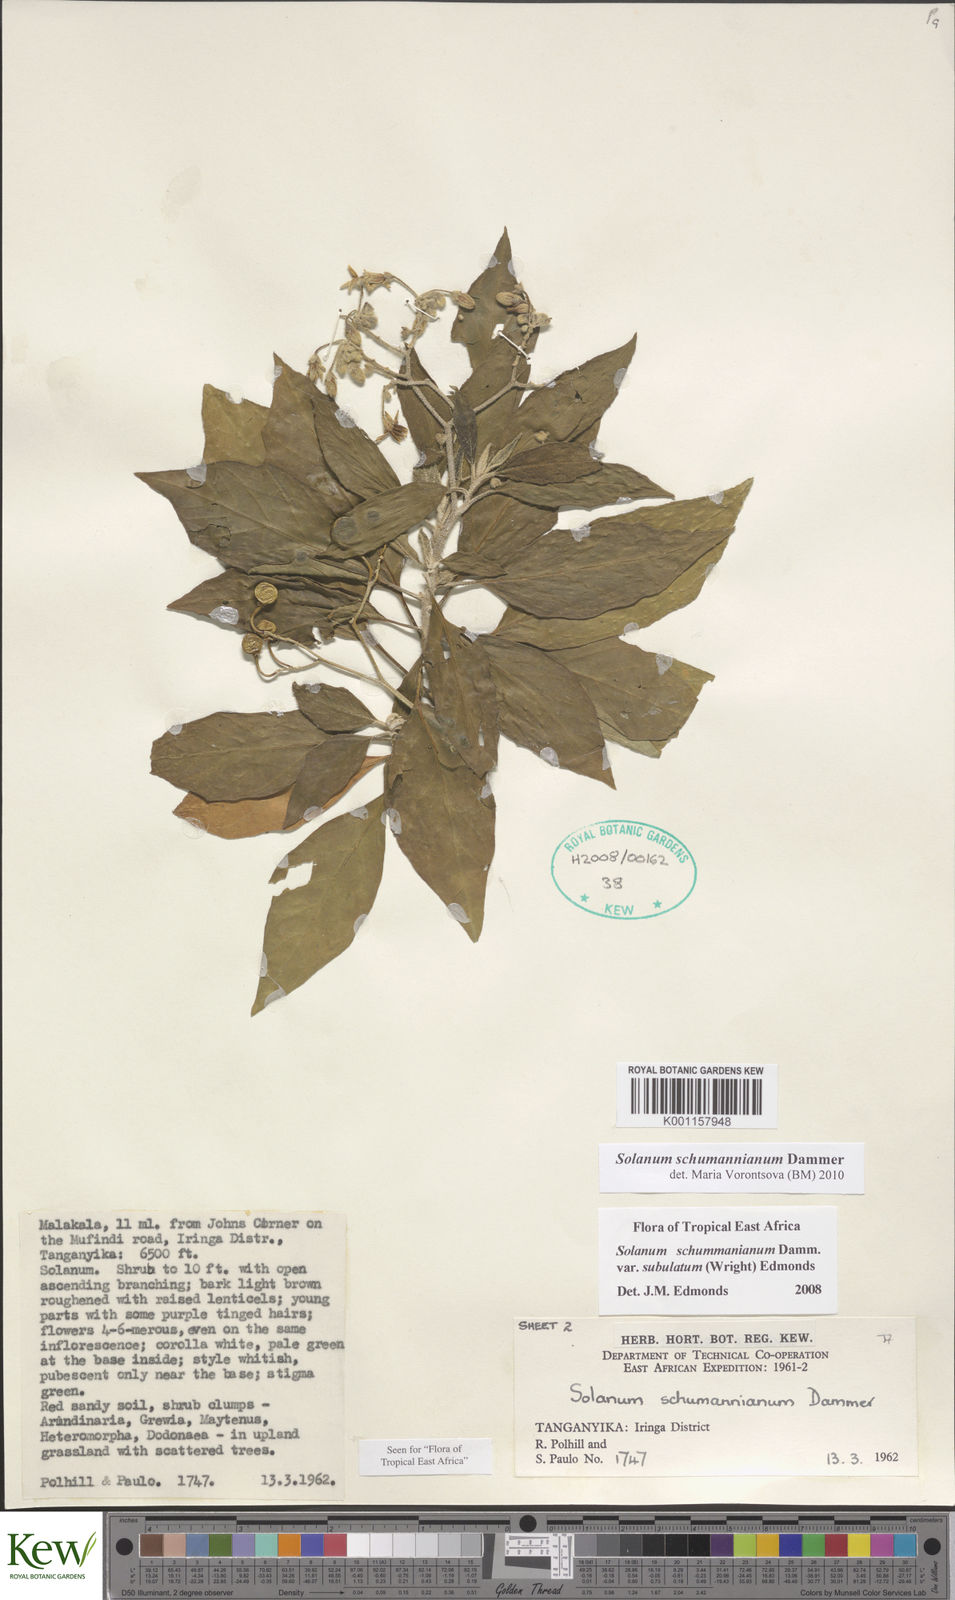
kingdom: Plantae
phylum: Tracheophyta
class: Magnoliopsida
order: Solanales
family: Solanaceae
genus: Solanum
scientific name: Solanum schumannianum
